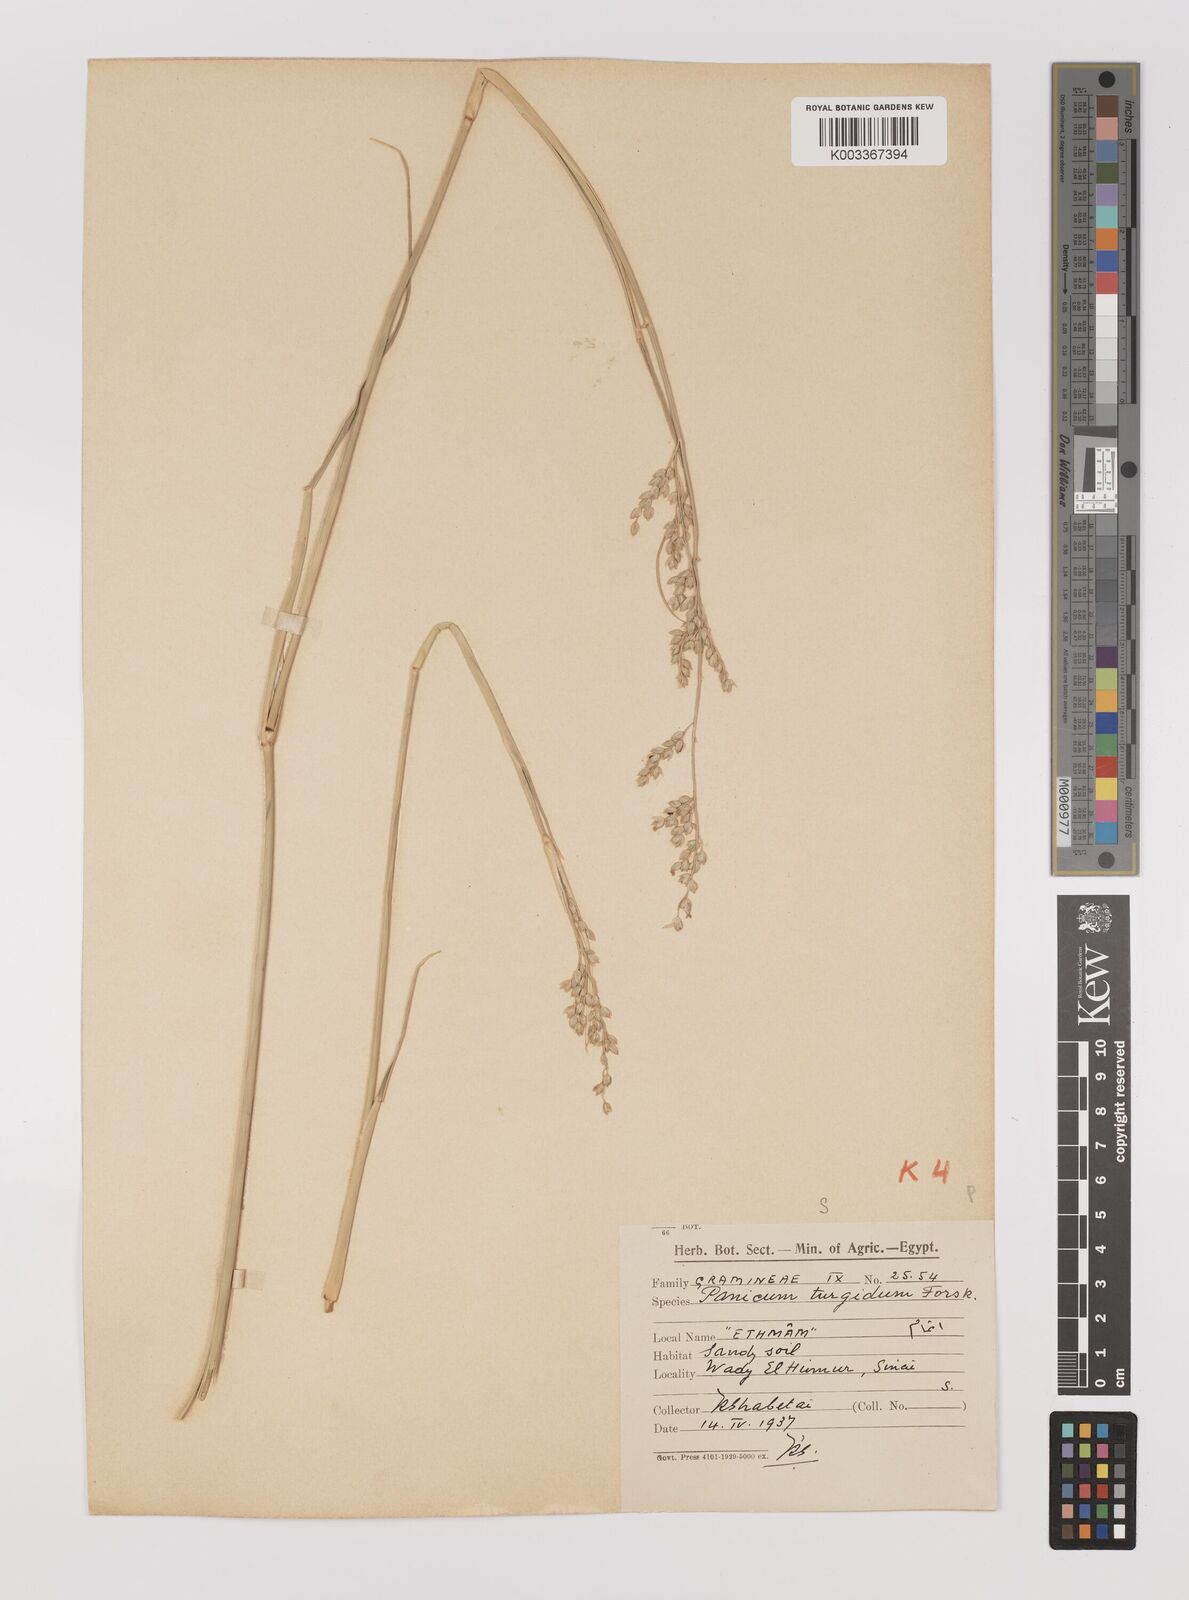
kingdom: Plantae
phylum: Tracheophyta
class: Liliopsida
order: Poales
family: Poaceae
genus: Panicum
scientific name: Panicum turgidum
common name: Desert grass
